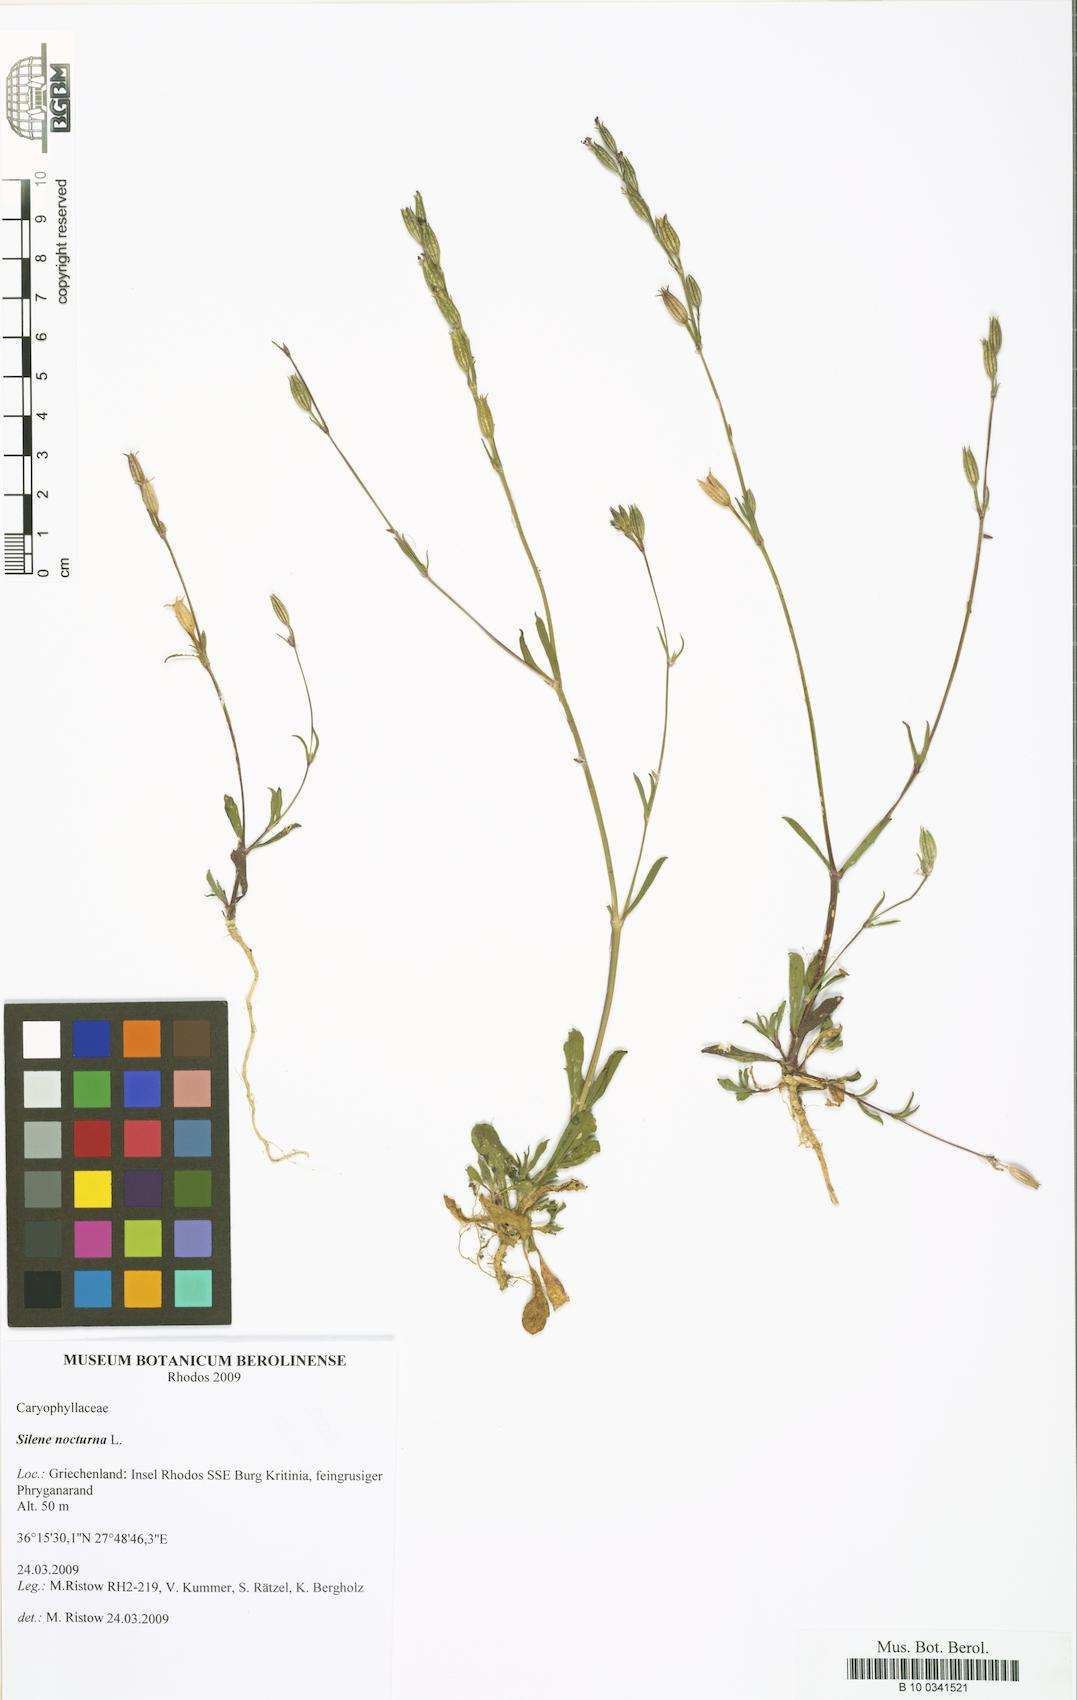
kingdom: Plantae
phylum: Tracheophyta
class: Magnoliopsida
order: Caryophyllales
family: Caryophyllaceae
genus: Silene
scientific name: Silene nocturna
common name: Mediterranean catchfly
